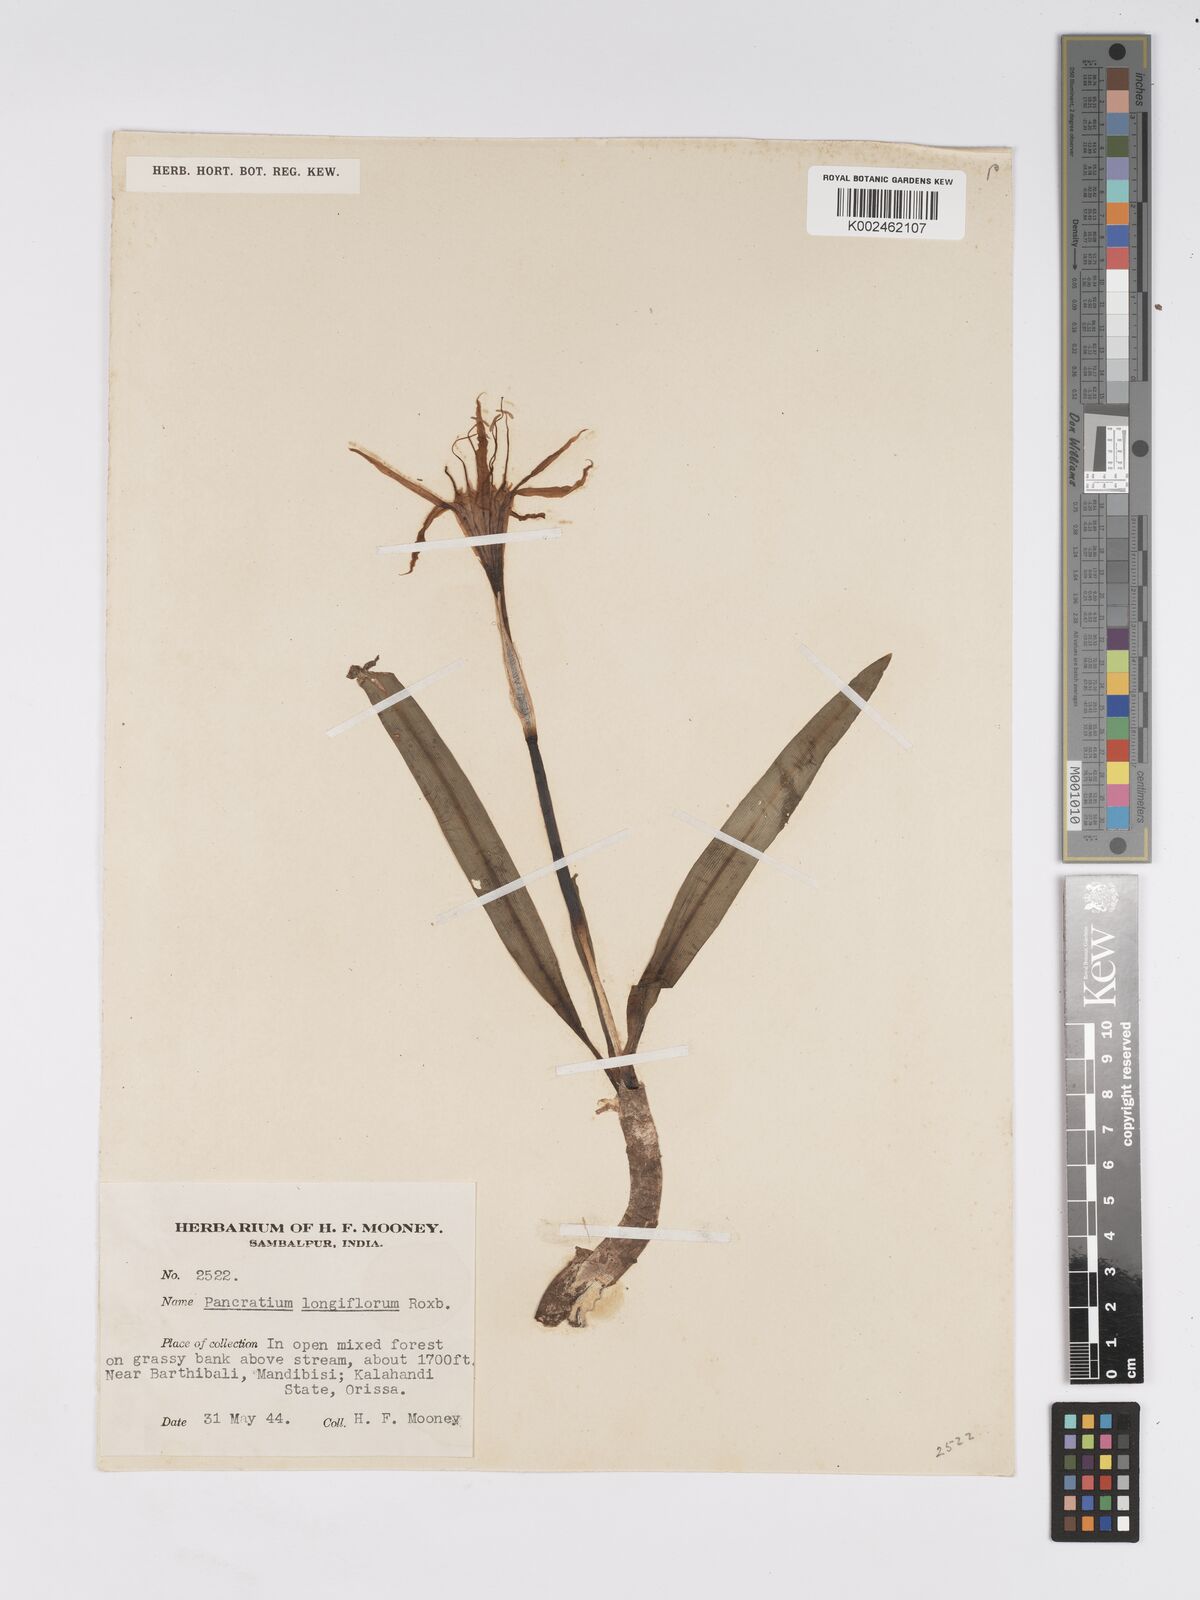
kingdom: Plantae
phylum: Tracheophyta
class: Liliopsida
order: Asparagales
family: Amaryllidaceae
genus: Pancratium
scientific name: Pancratium zeylanicum
